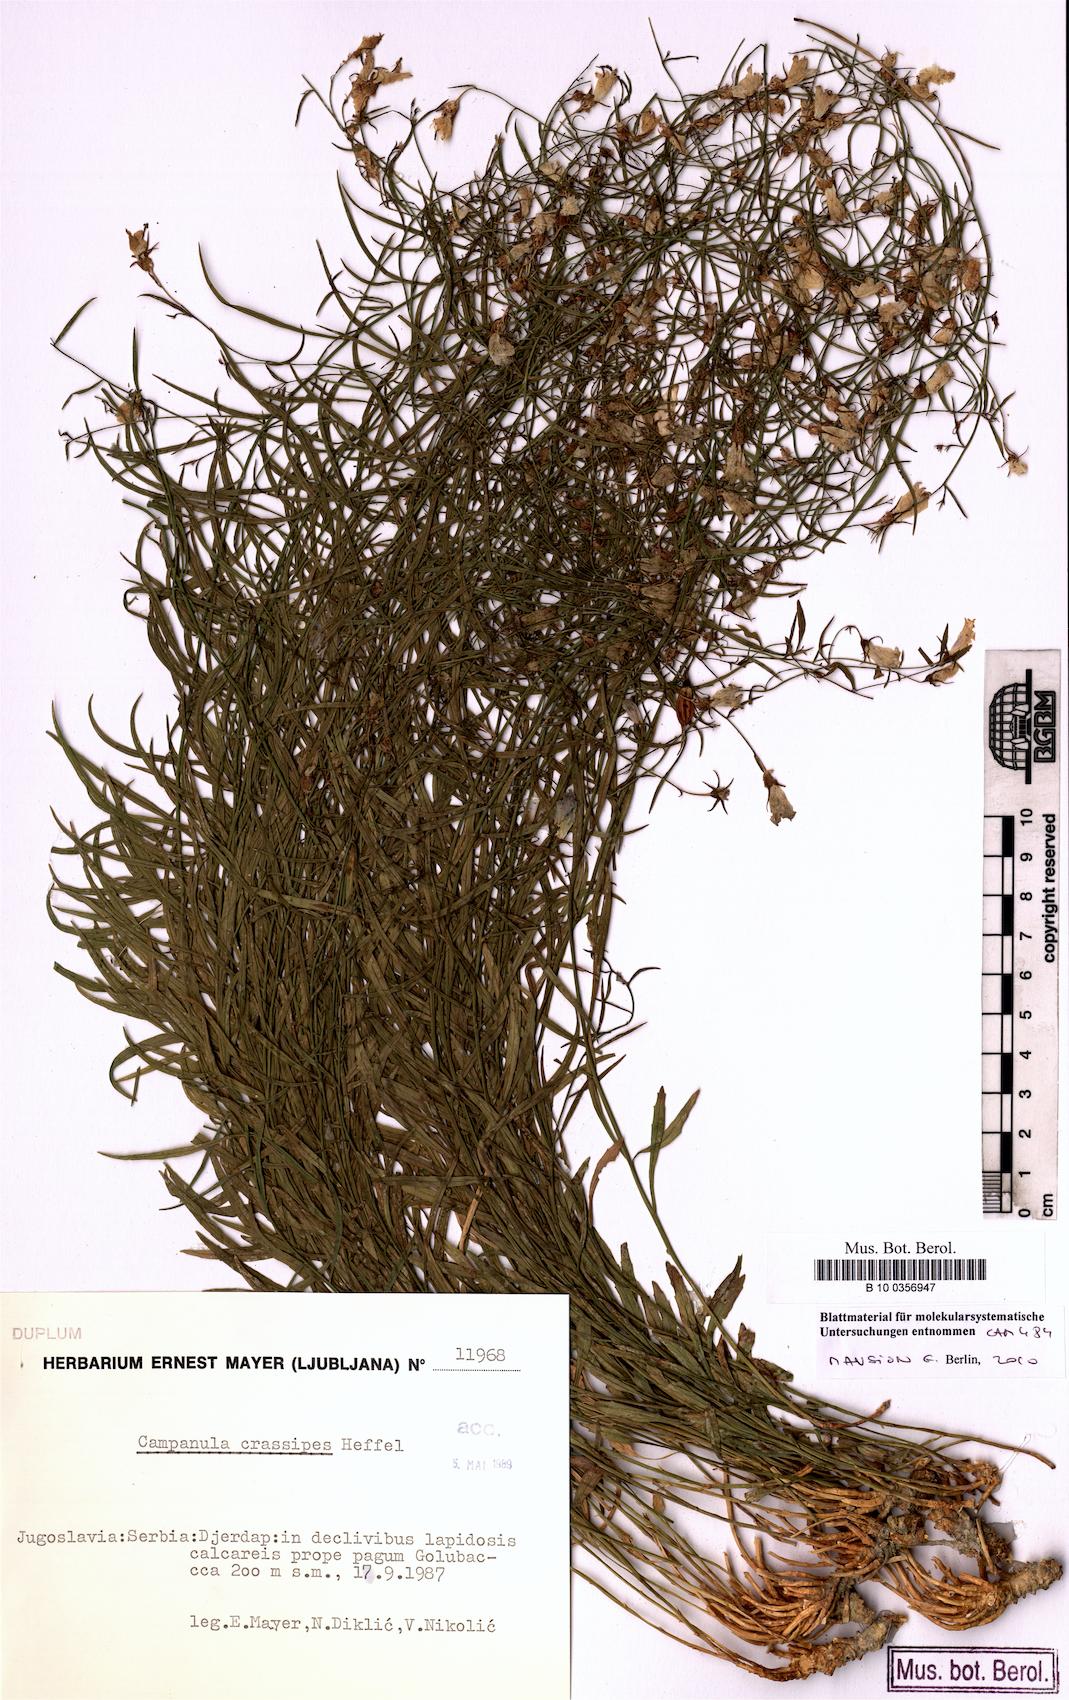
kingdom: Plantae
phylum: Tracheophyta
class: Magnoliopsida
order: Asterales
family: Campanulaceae
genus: Campanula
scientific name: Campanula crassipes
